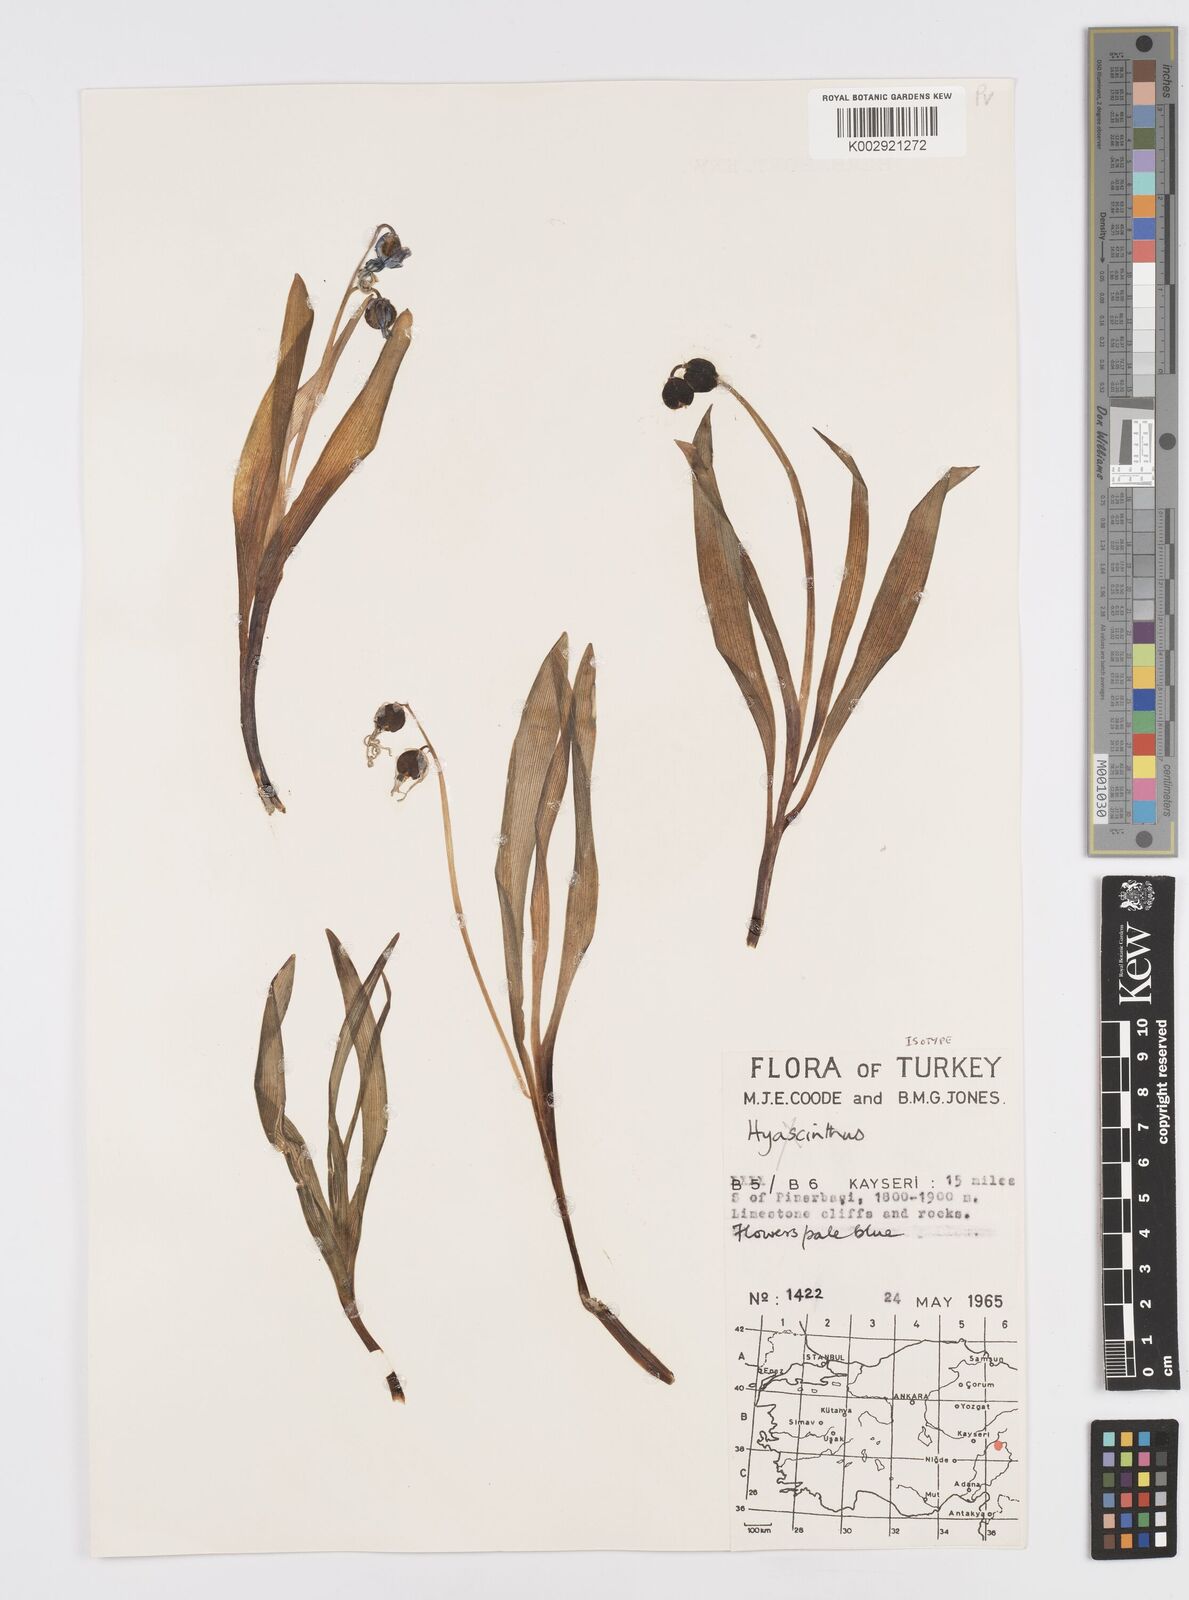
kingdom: Plantae
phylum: Tracheophyta
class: Liliopsida
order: Asparagales
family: Asparagaceae
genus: Hyacinthus
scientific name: Hyacinthus orientalis
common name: Hyacinth
